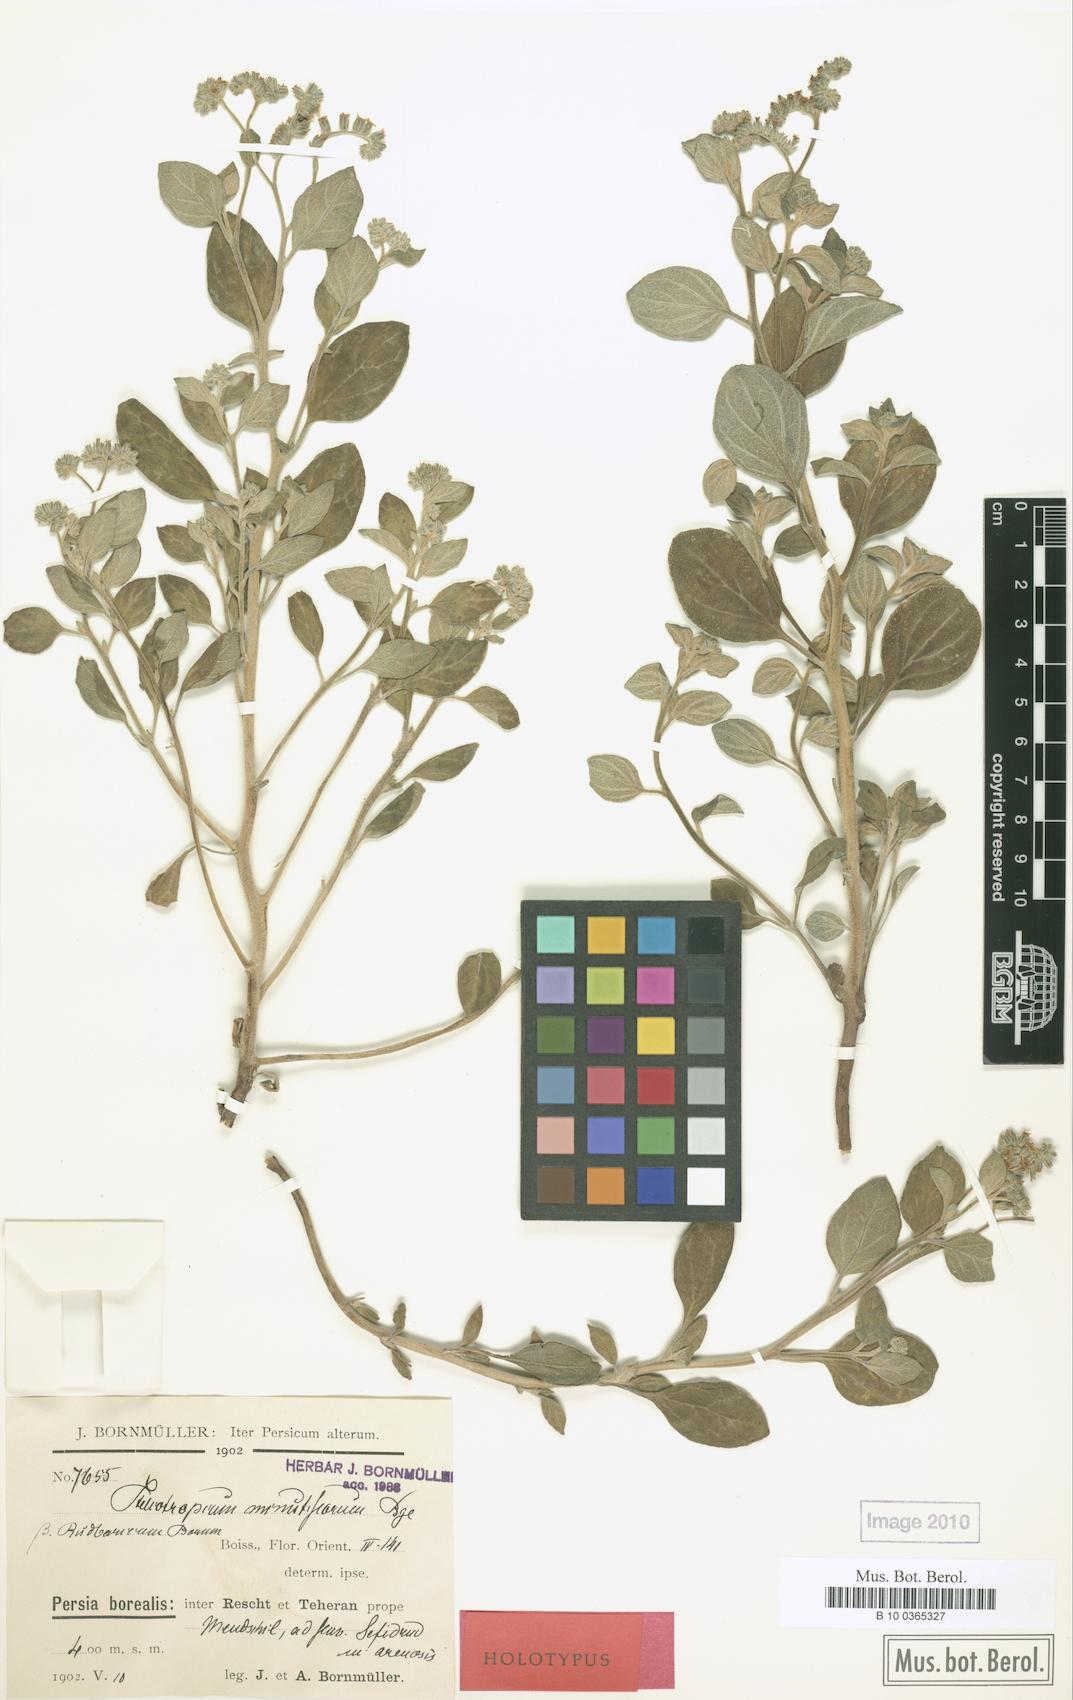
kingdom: Plantae
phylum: Tracheophyta
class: Magnoliopsida
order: Boraginales
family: Heliotropiaceae
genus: Heliotropium
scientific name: Heliotropium rudbaricum
